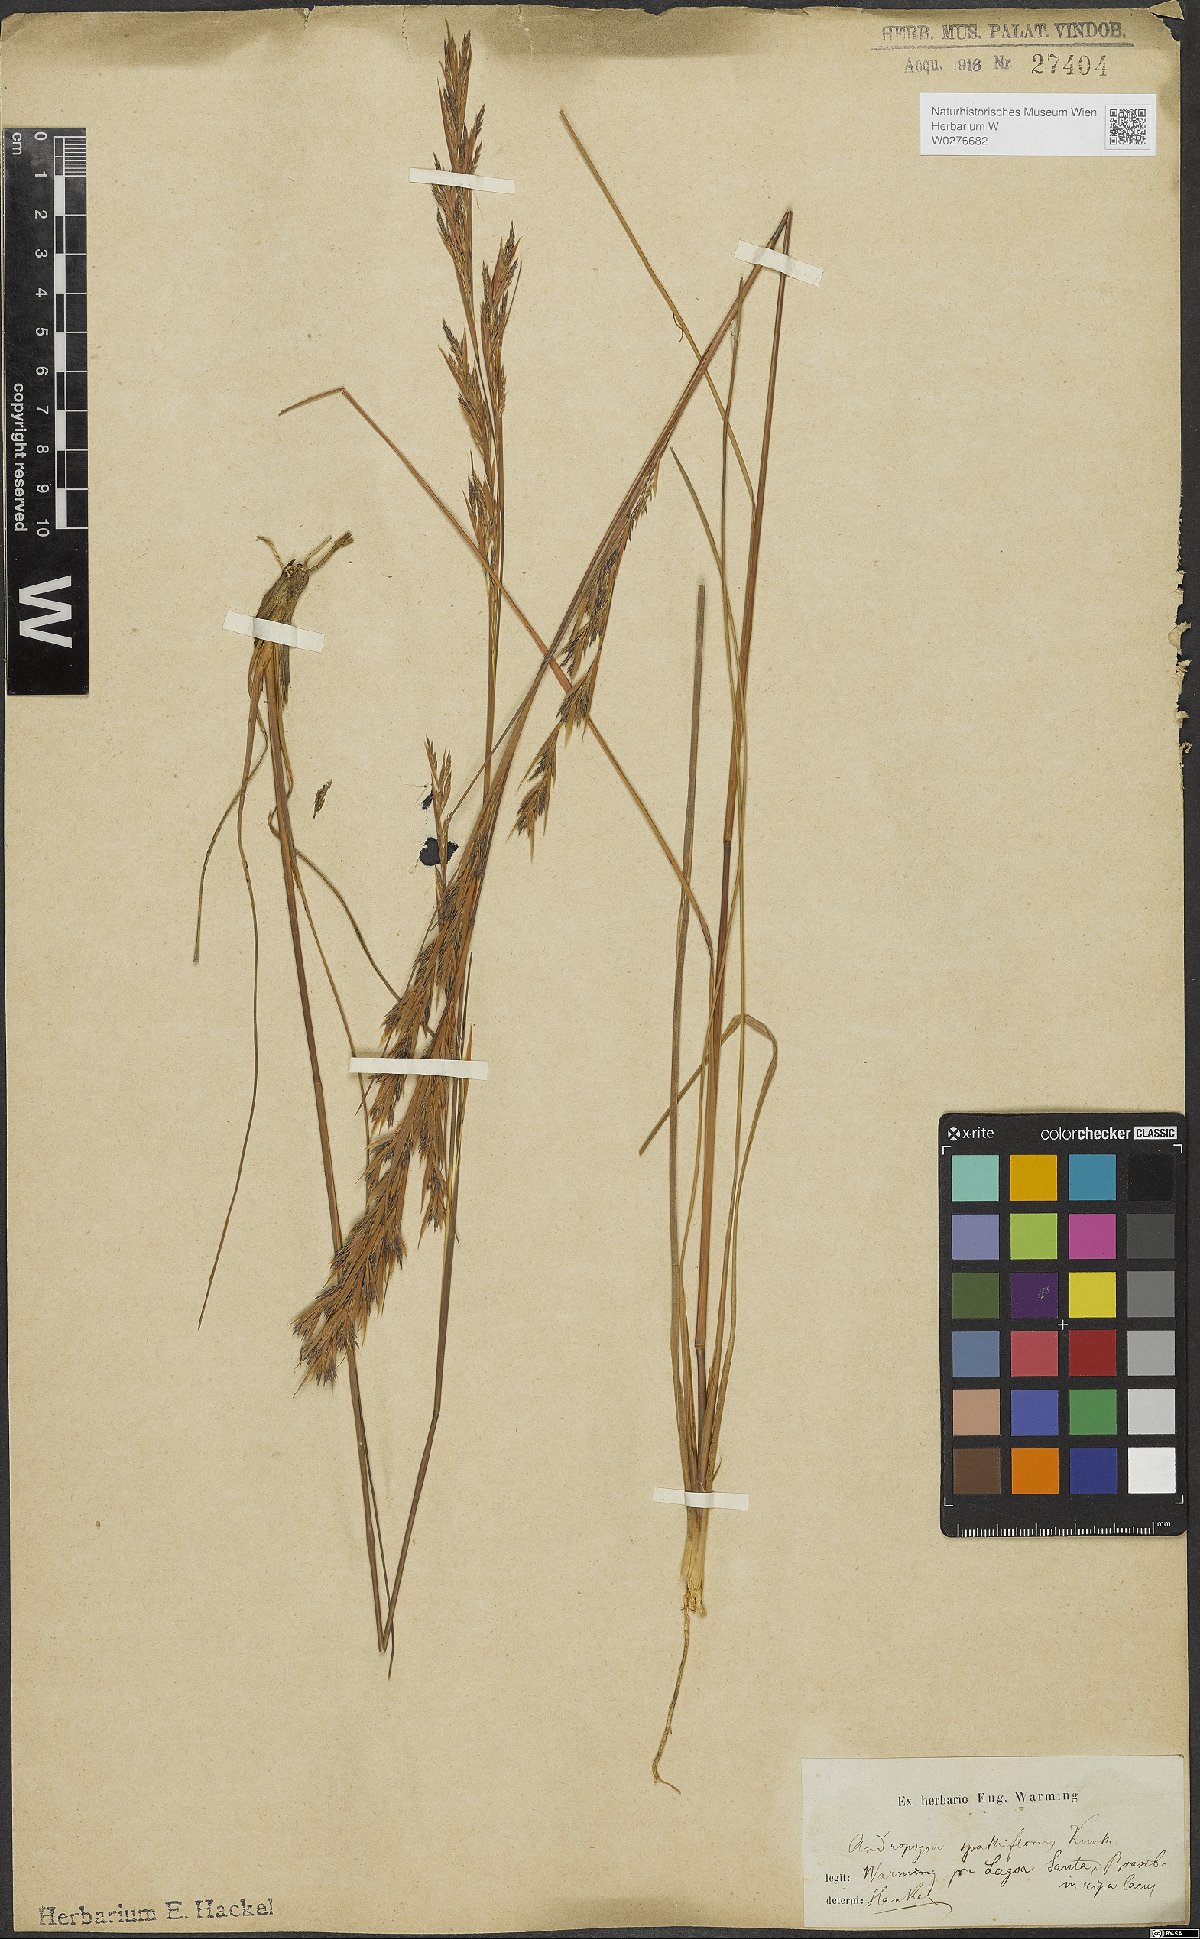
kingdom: Plantae
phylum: Tracheophyta
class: Liliopsida
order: Poales
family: Poaceae
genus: Andropogon
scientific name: Andropogon virgatus
